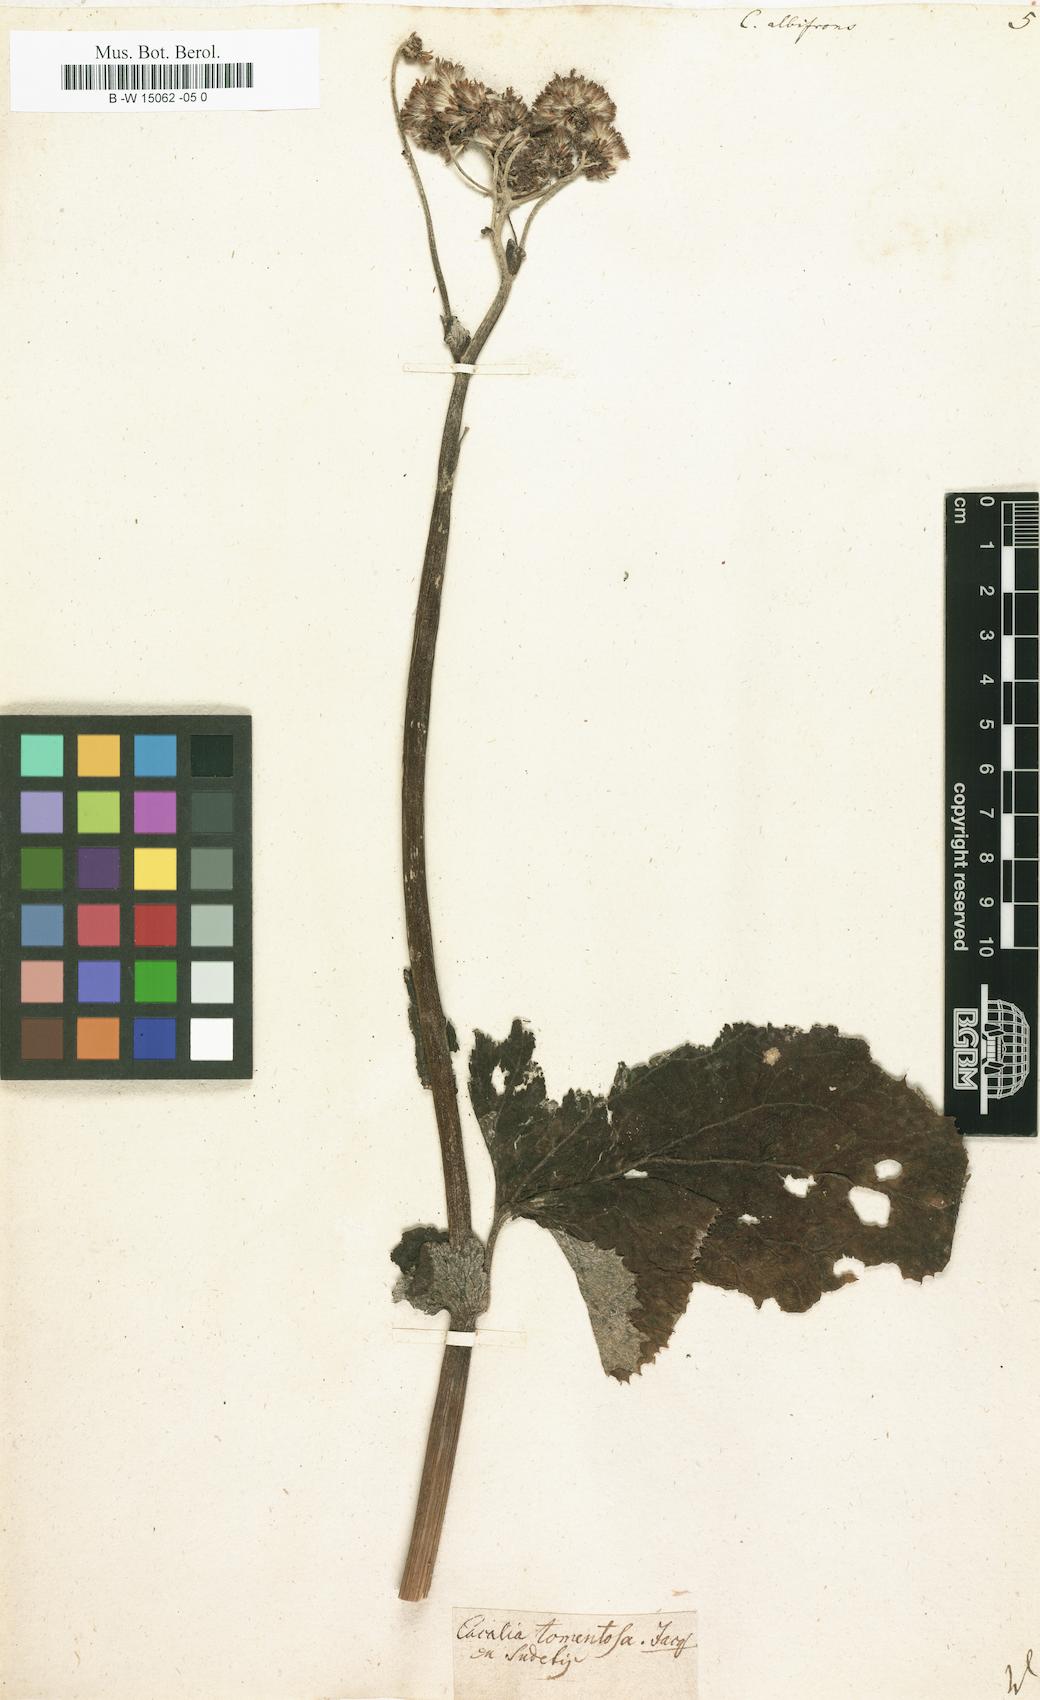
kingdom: Plantae
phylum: Tracheophyta
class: Magnoliopsida
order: Asterales
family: Asteraceae
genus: Adenostyles
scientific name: Adenostyles alliariae
